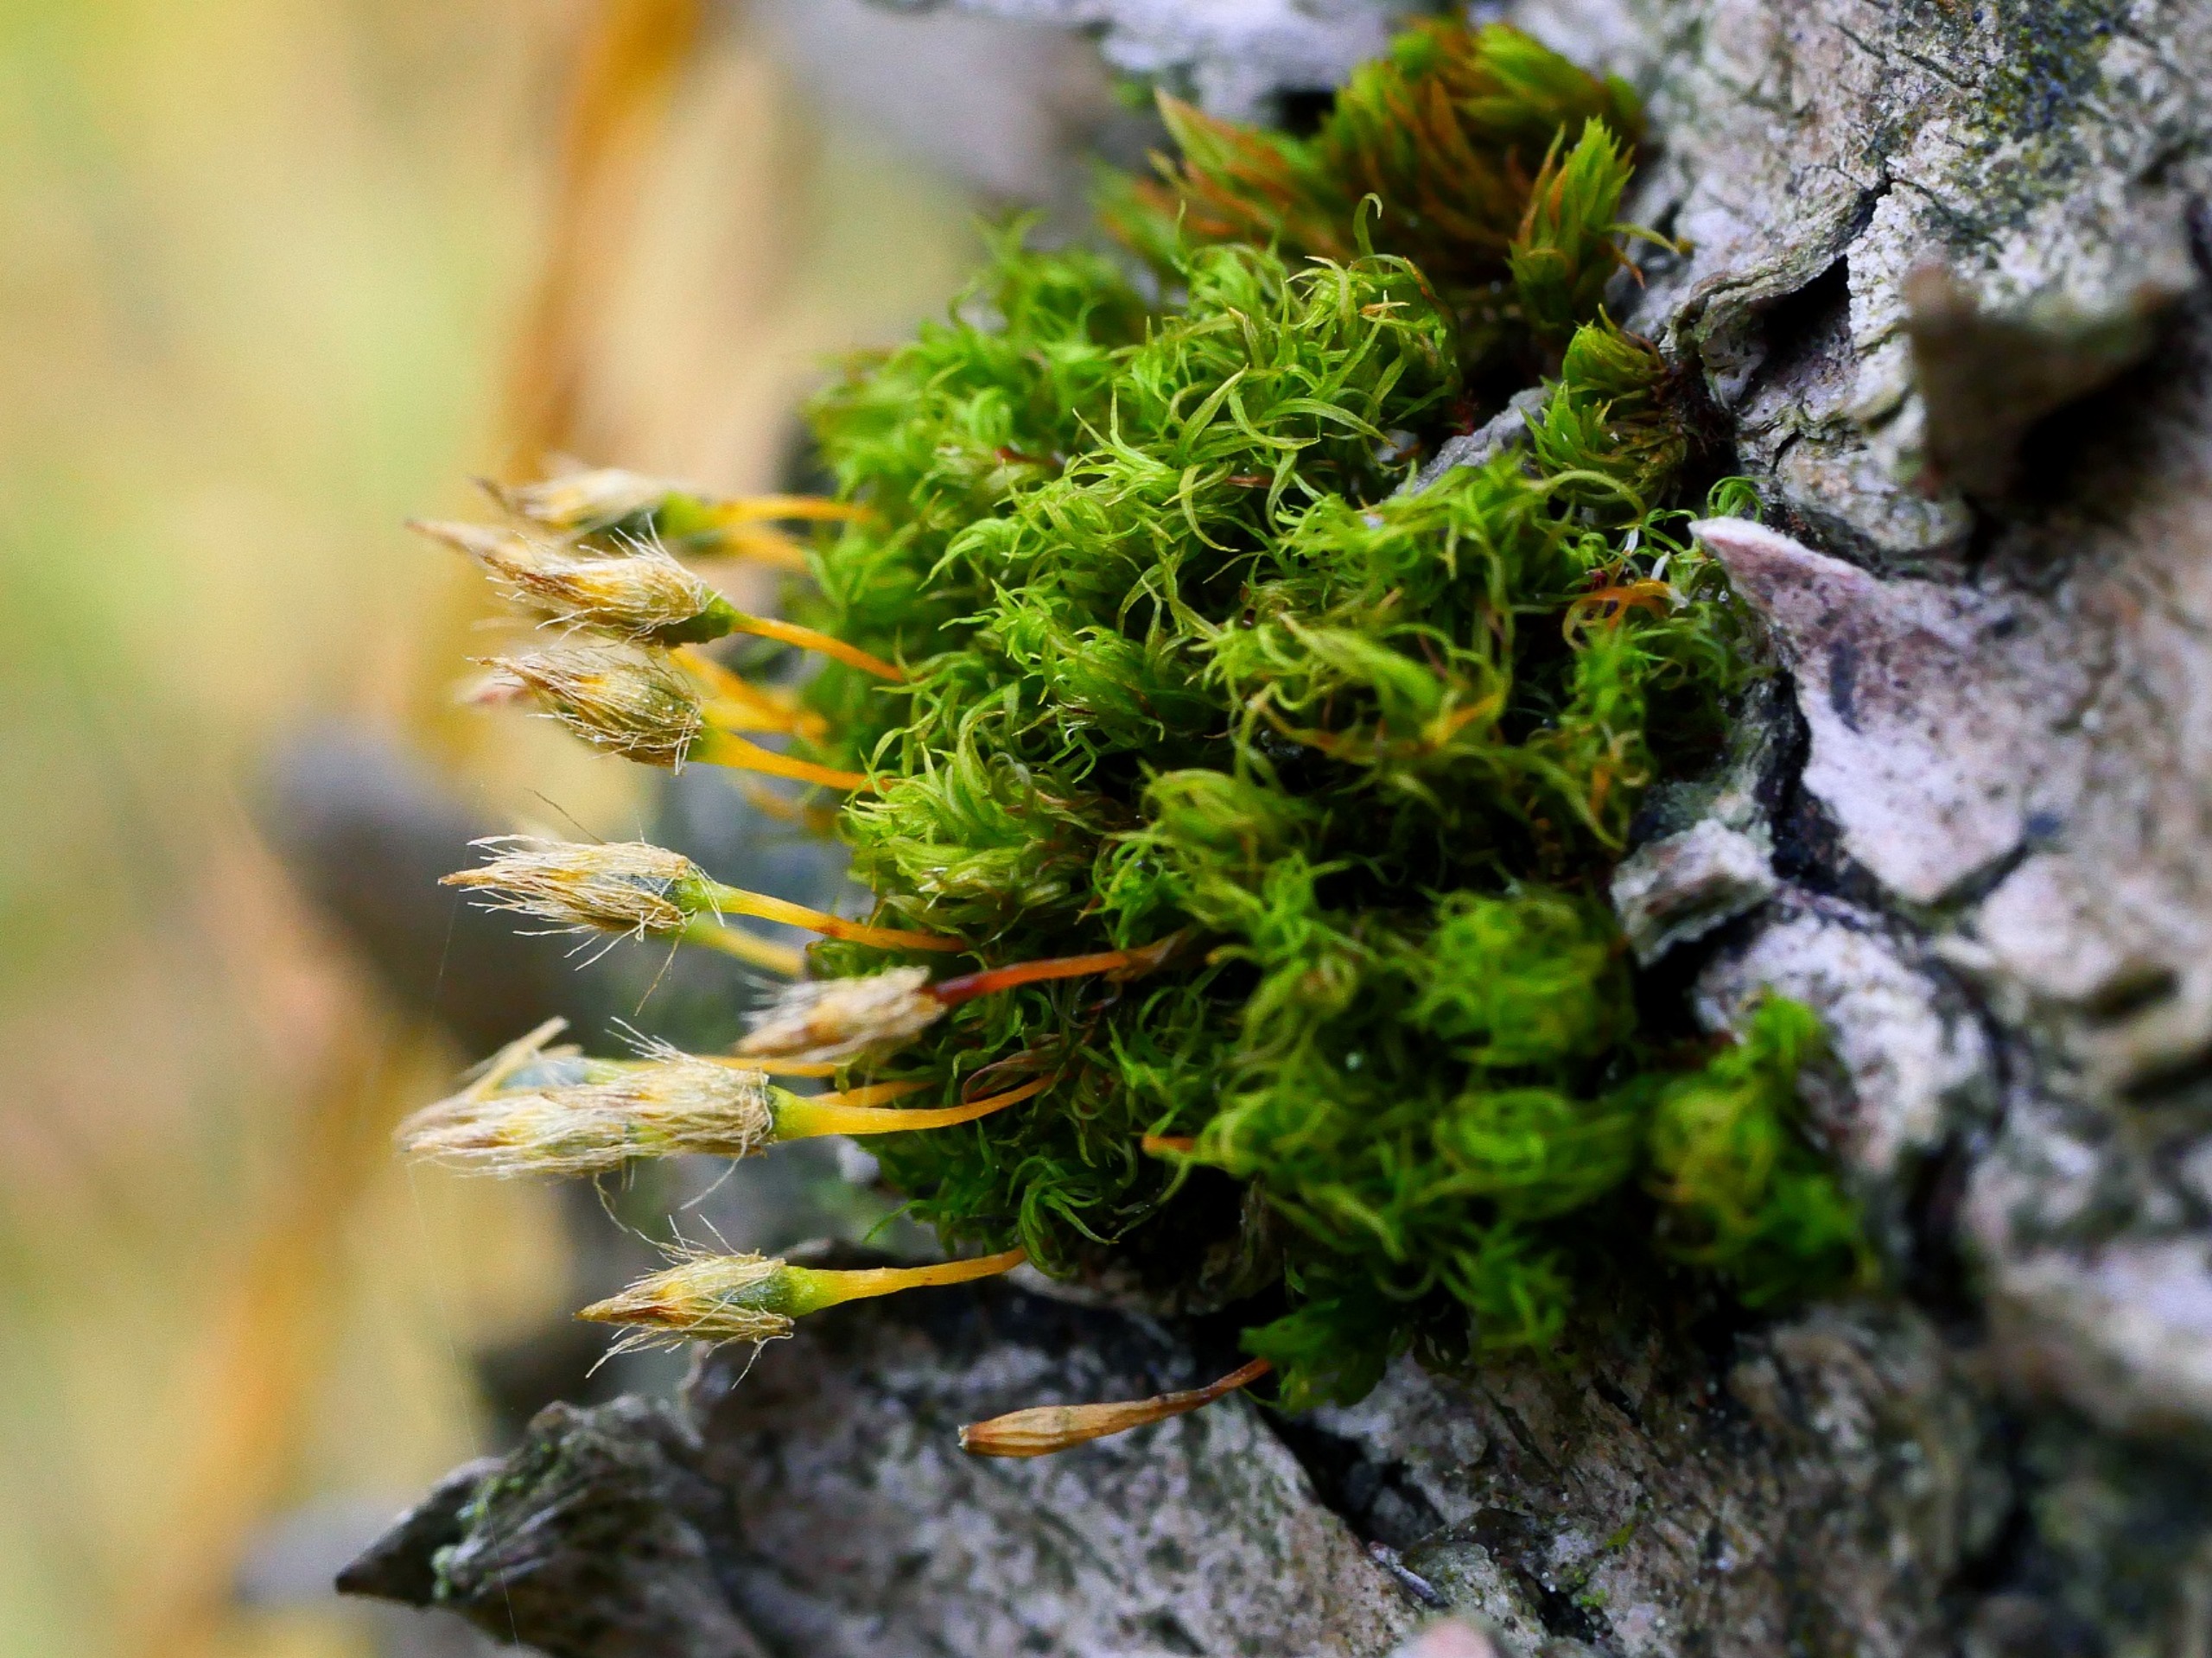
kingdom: Plantae
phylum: Bryophyta
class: Bryopsida
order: Orthotrichales
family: Orthotrichaceae
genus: Ulota
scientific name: Ulota bruchii
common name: Bruchs låddenhætte
